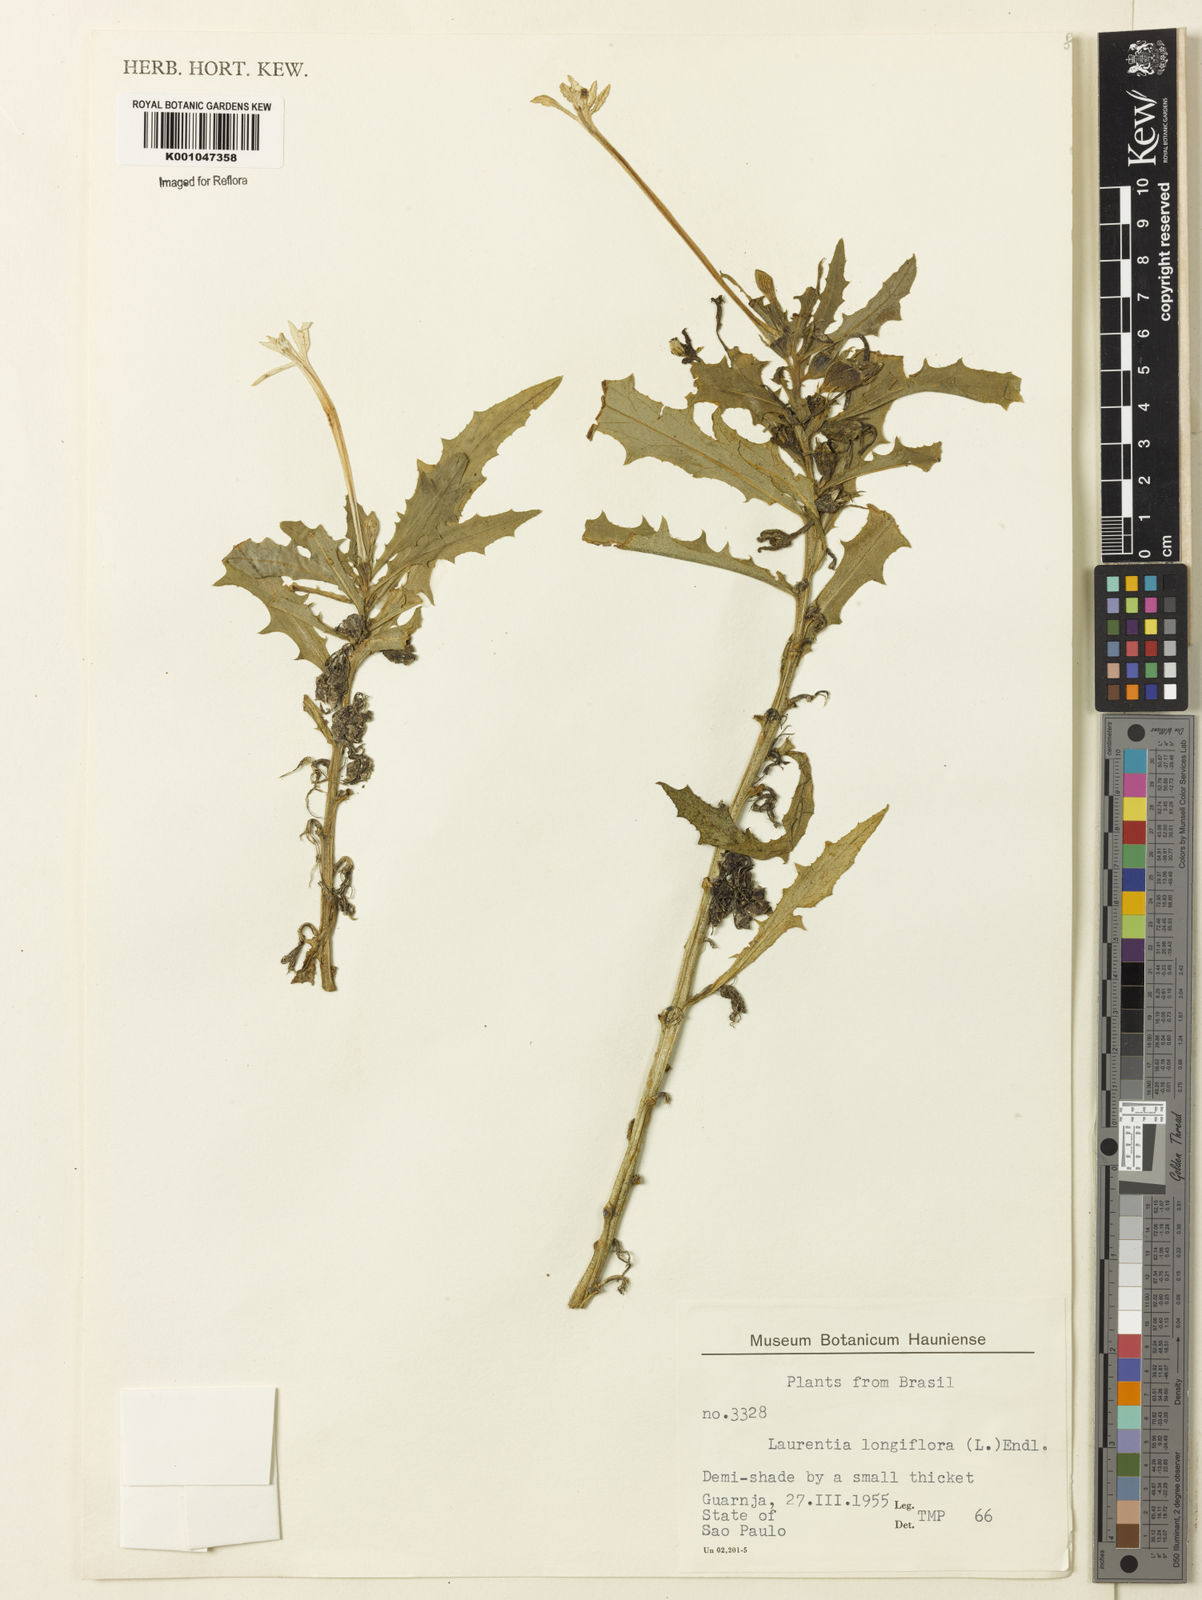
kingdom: Plantae
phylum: Tracheophyta
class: Magnoliopsida
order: Asterales
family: Campanulaceae
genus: Hippobroma
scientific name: Hippobroma longiflora
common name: Madamfate
